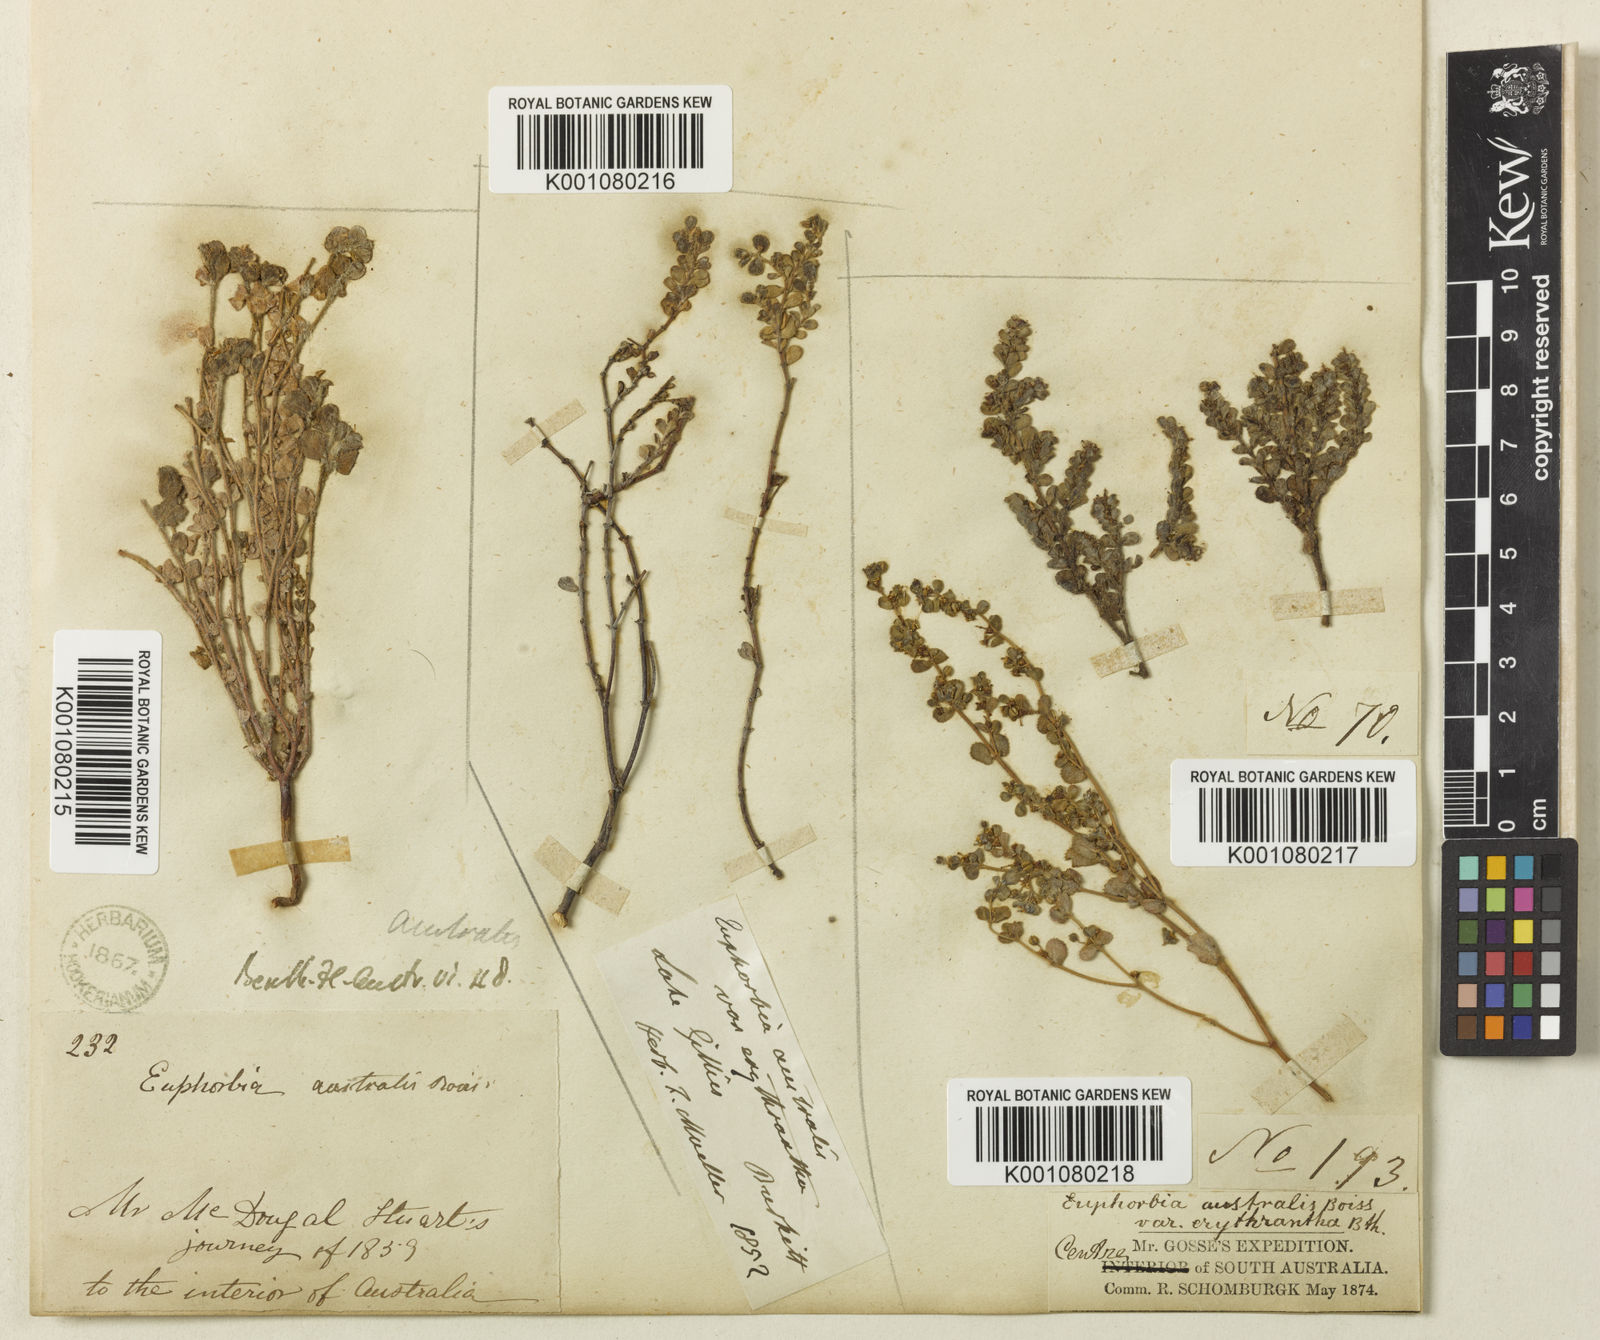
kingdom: Plantae
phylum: Tracheophyta
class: Magnoliopsida
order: Malpighiales
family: Euphorbiaceae
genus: Euphorbia
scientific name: Euphorbia australis
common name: Hairy causticweed
